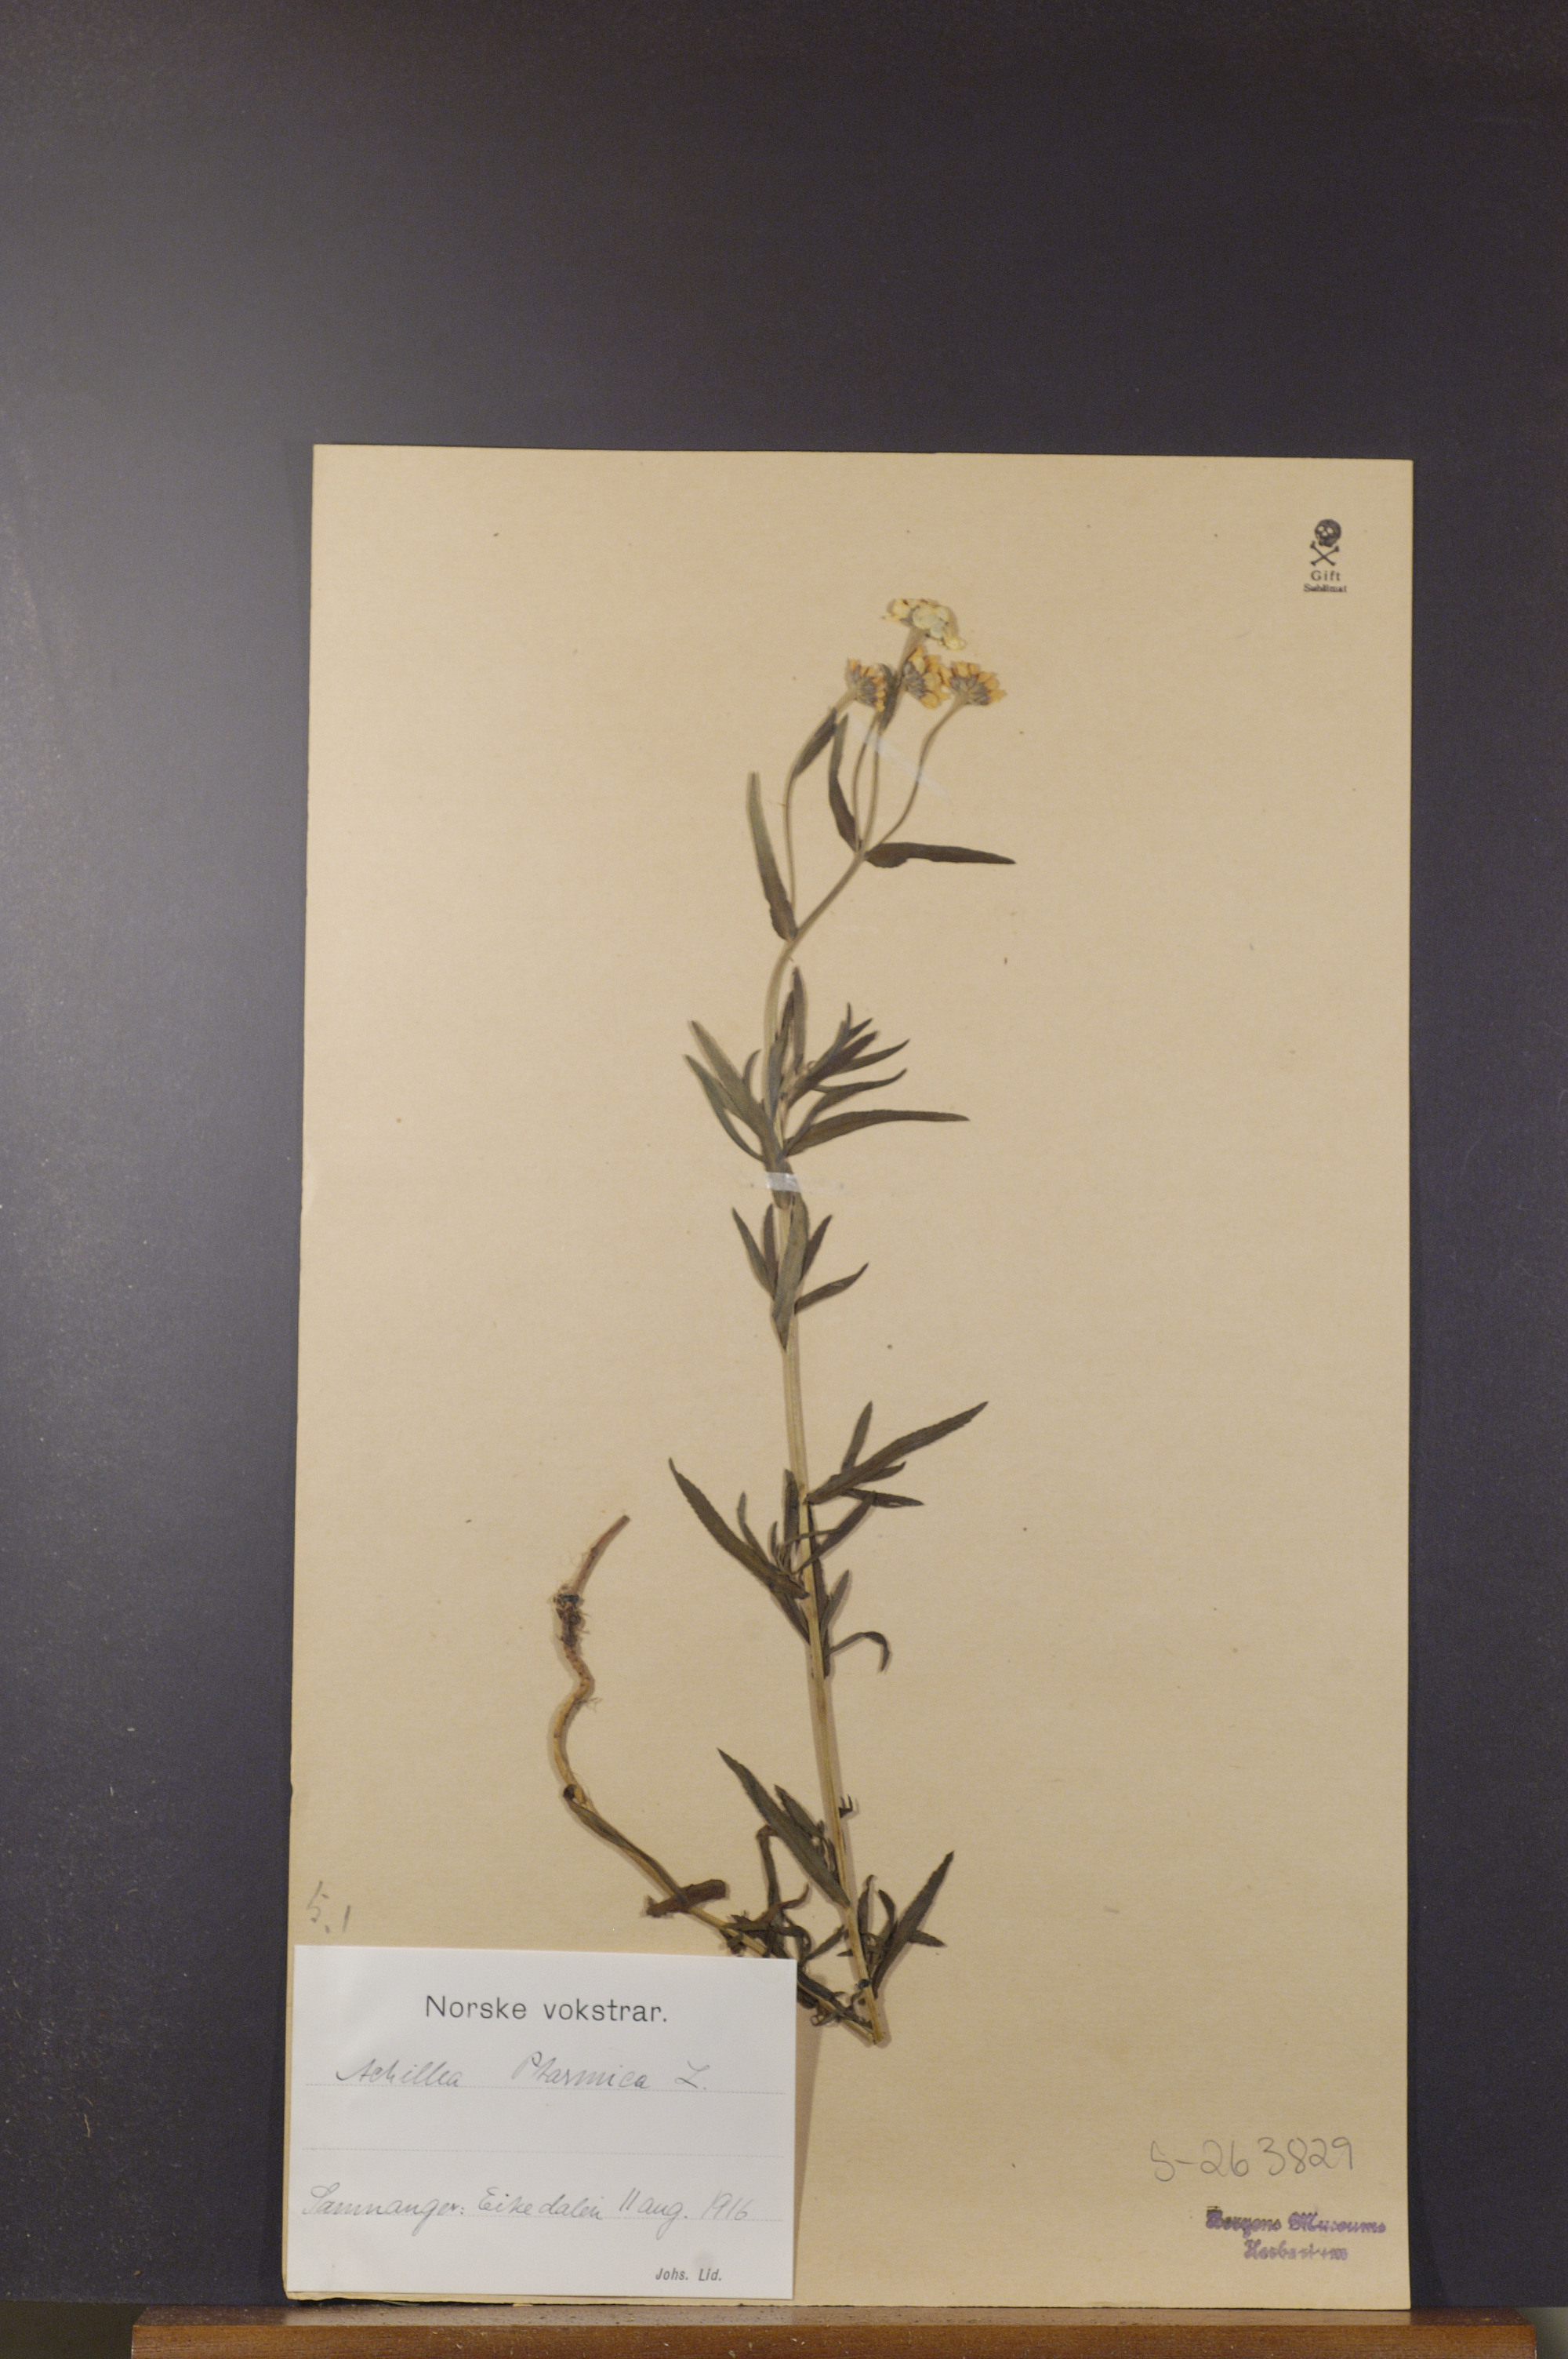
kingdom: Plantae
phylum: Tracheophyta
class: Magnoliopsida
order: Asterales
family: Asteraceae
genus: Achillea
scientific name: Achillea ptarmica
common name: Sneezeweed
